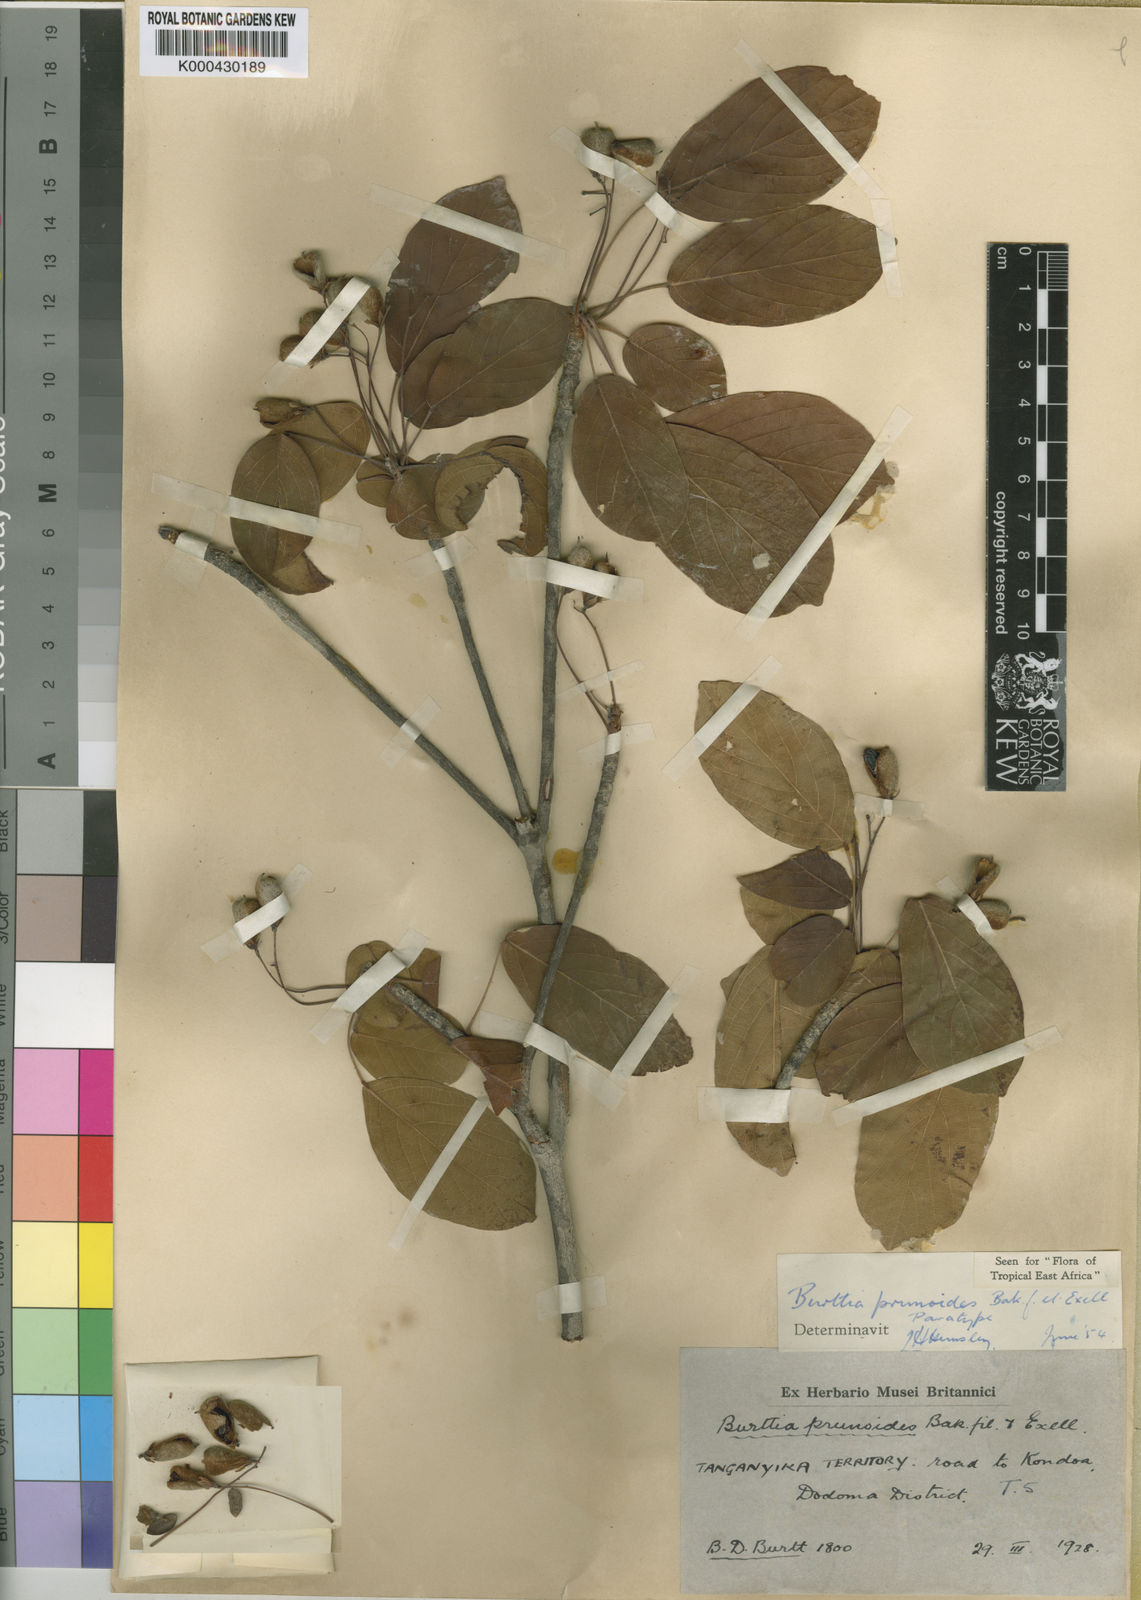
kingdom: Plantae
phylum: Tracheophyta
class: Magnoliopsida
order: Oxalidales
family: Connaraceae
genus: Burttia
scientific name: Burttia prunoides
